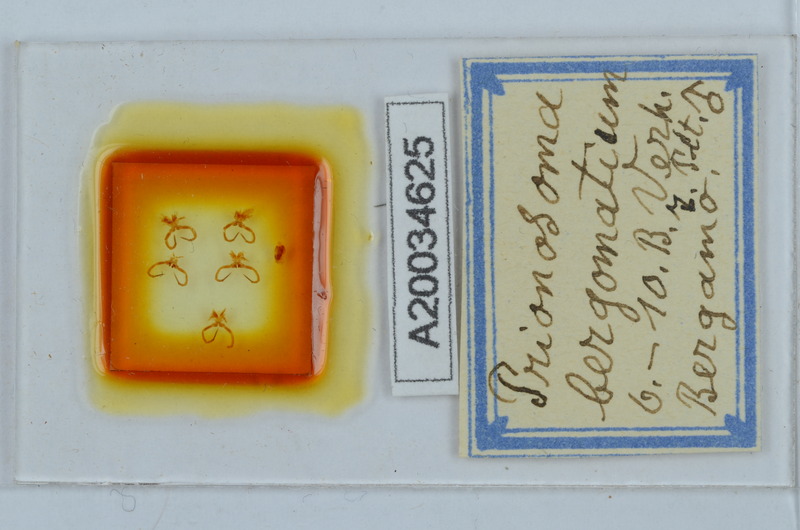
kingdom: Animalia
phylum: Arthropoda
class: Diplopoda
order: Chordeumatida
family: Craspedosomatidae
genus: Bergamosoma
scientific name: Bergamosoma bergomatium
